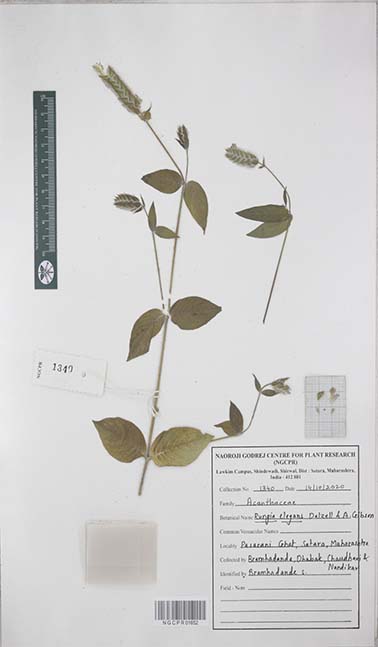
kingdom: Plantae
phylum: Tracheophyta
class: Magnoliopsida
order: Lamiales
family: Acanthaceae
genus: Rungia
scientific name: Rungia elegans
